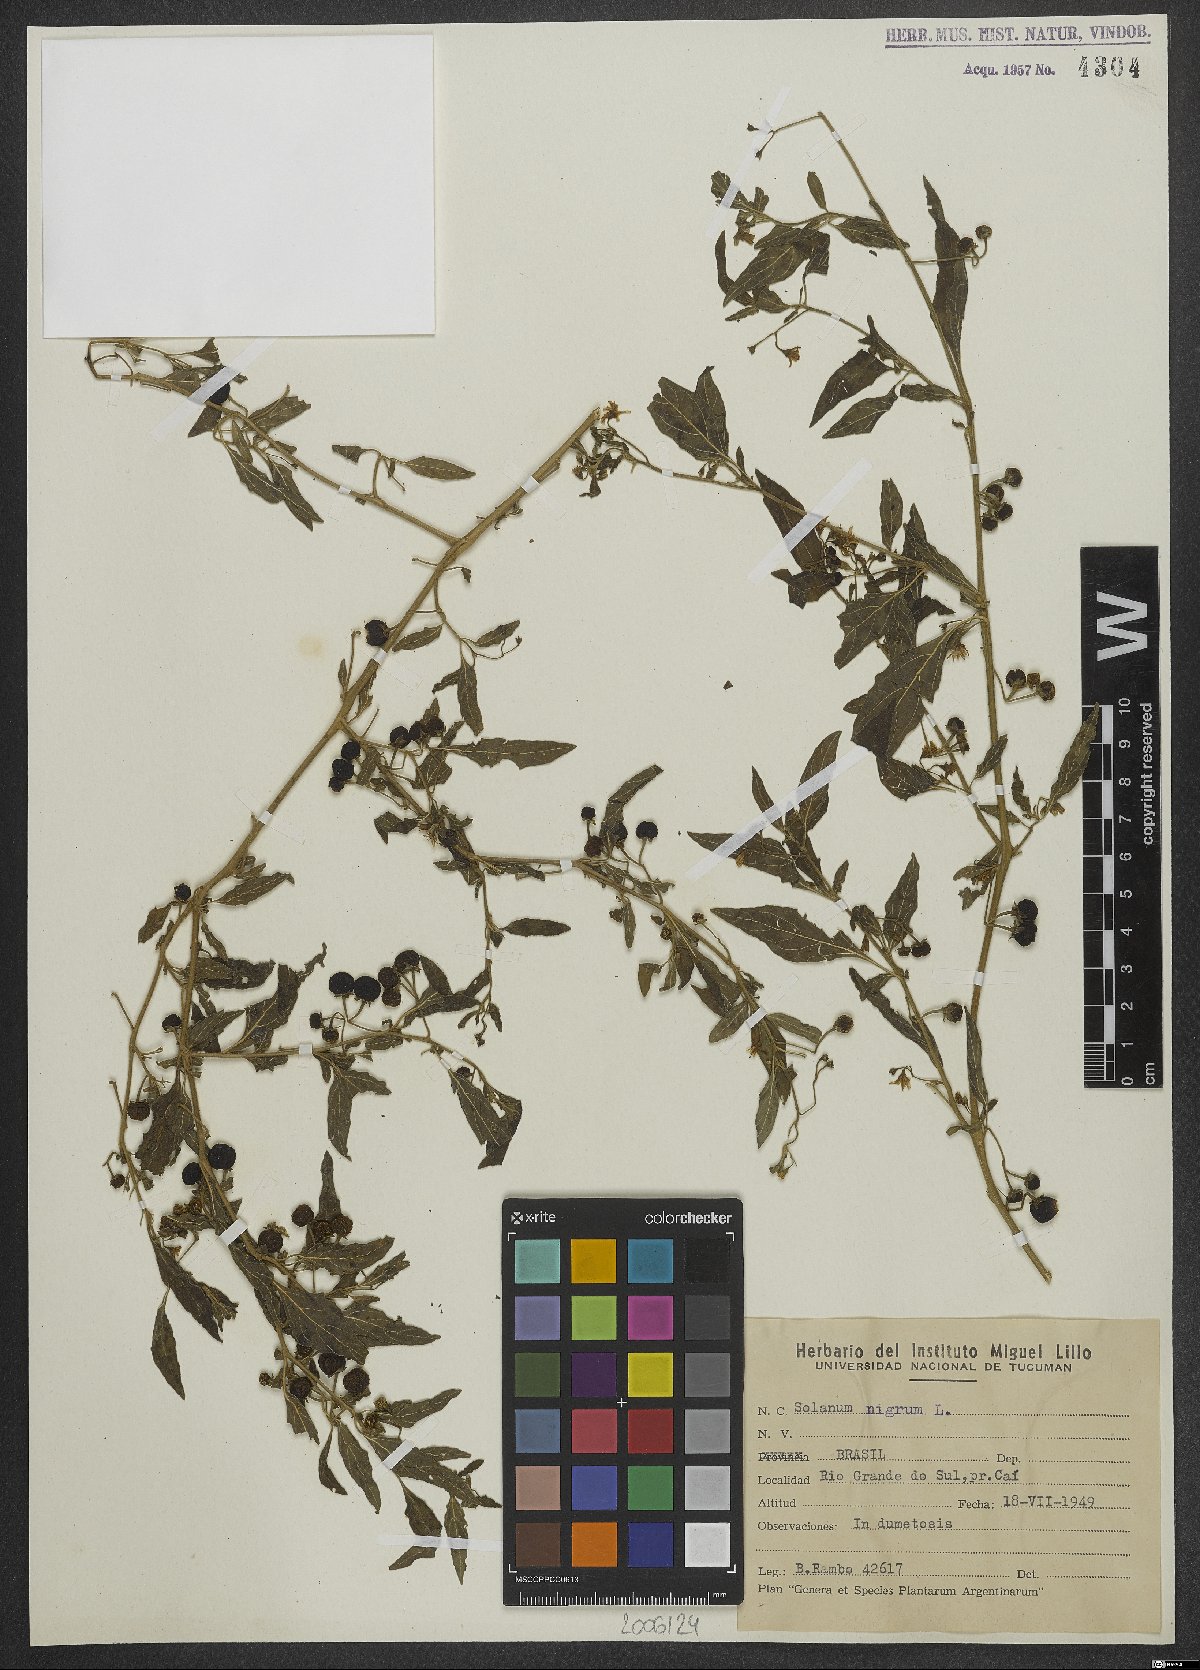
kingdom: Plantae
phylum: Tracheophyta
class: Magnoliopsida
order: Solanales
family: Solanaceae
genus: Solanum
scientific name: Solanum nigrum
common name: Black nightshade
